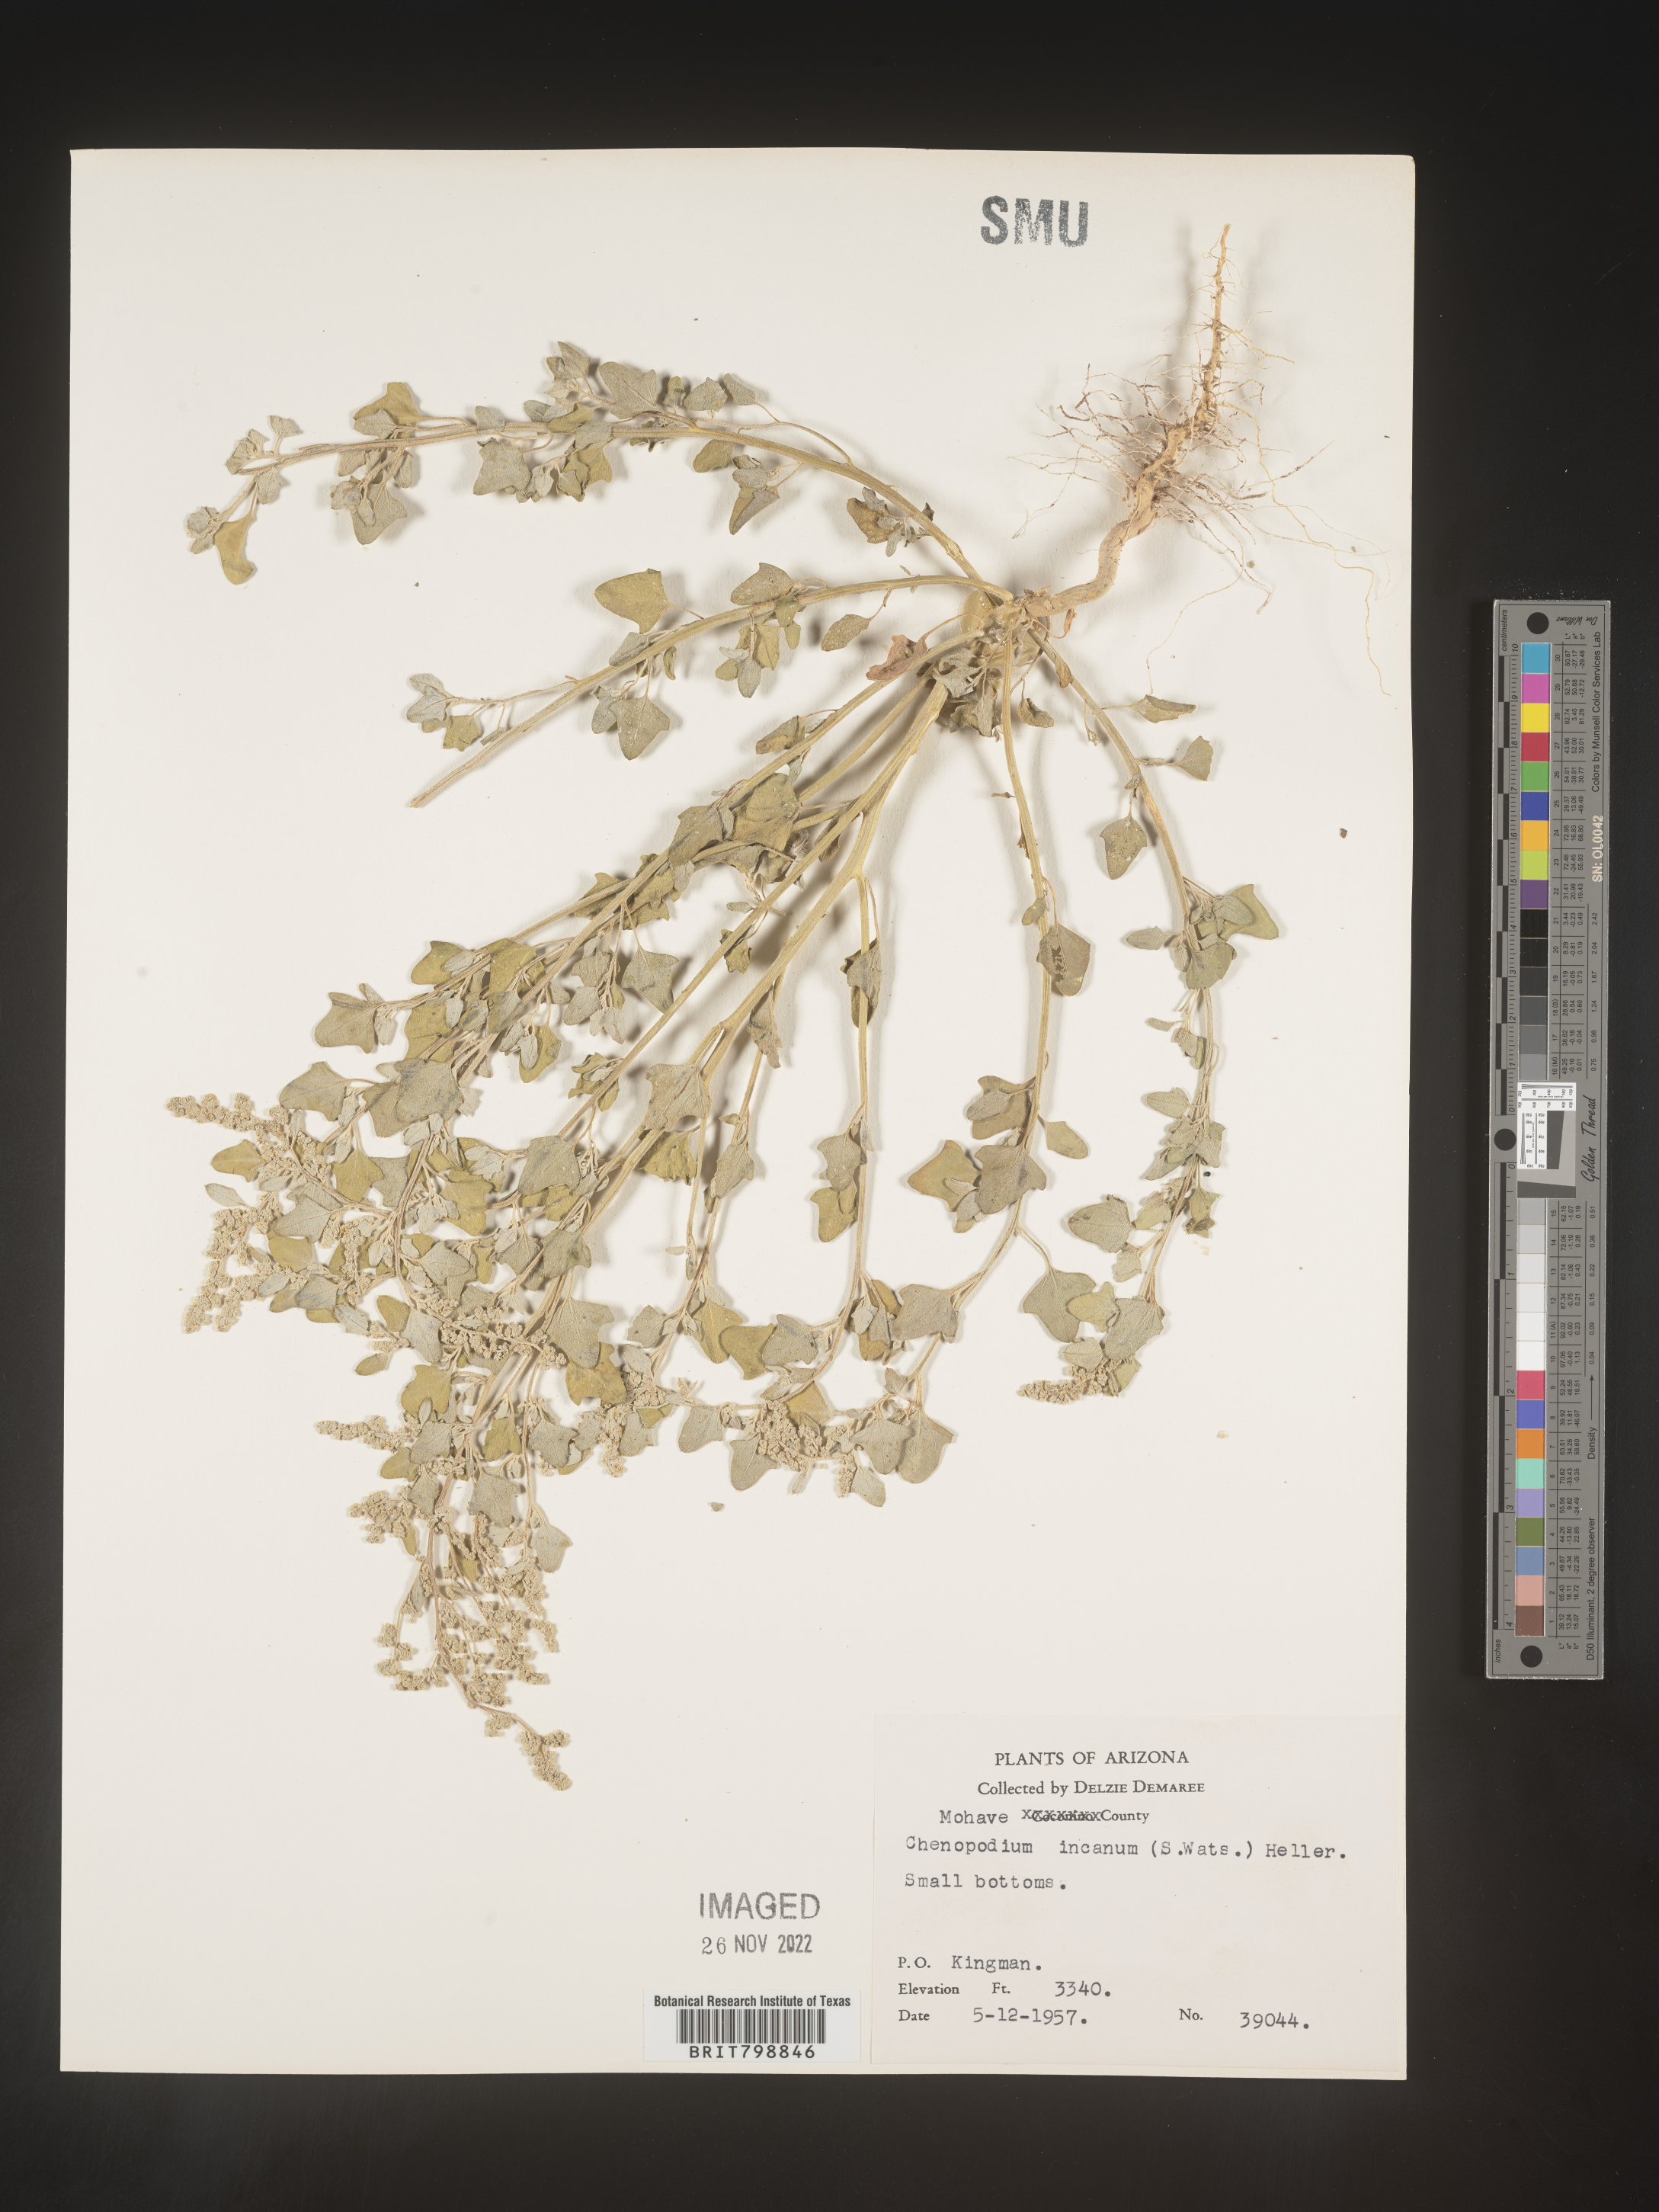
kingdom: Plantae
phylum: Tracheophyta
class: Magnoliopsida
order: Caryophyllales
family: Amaranthaceae
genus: Chenopodium
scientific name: Chenopodium incanum
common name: Hoary goosefoot
